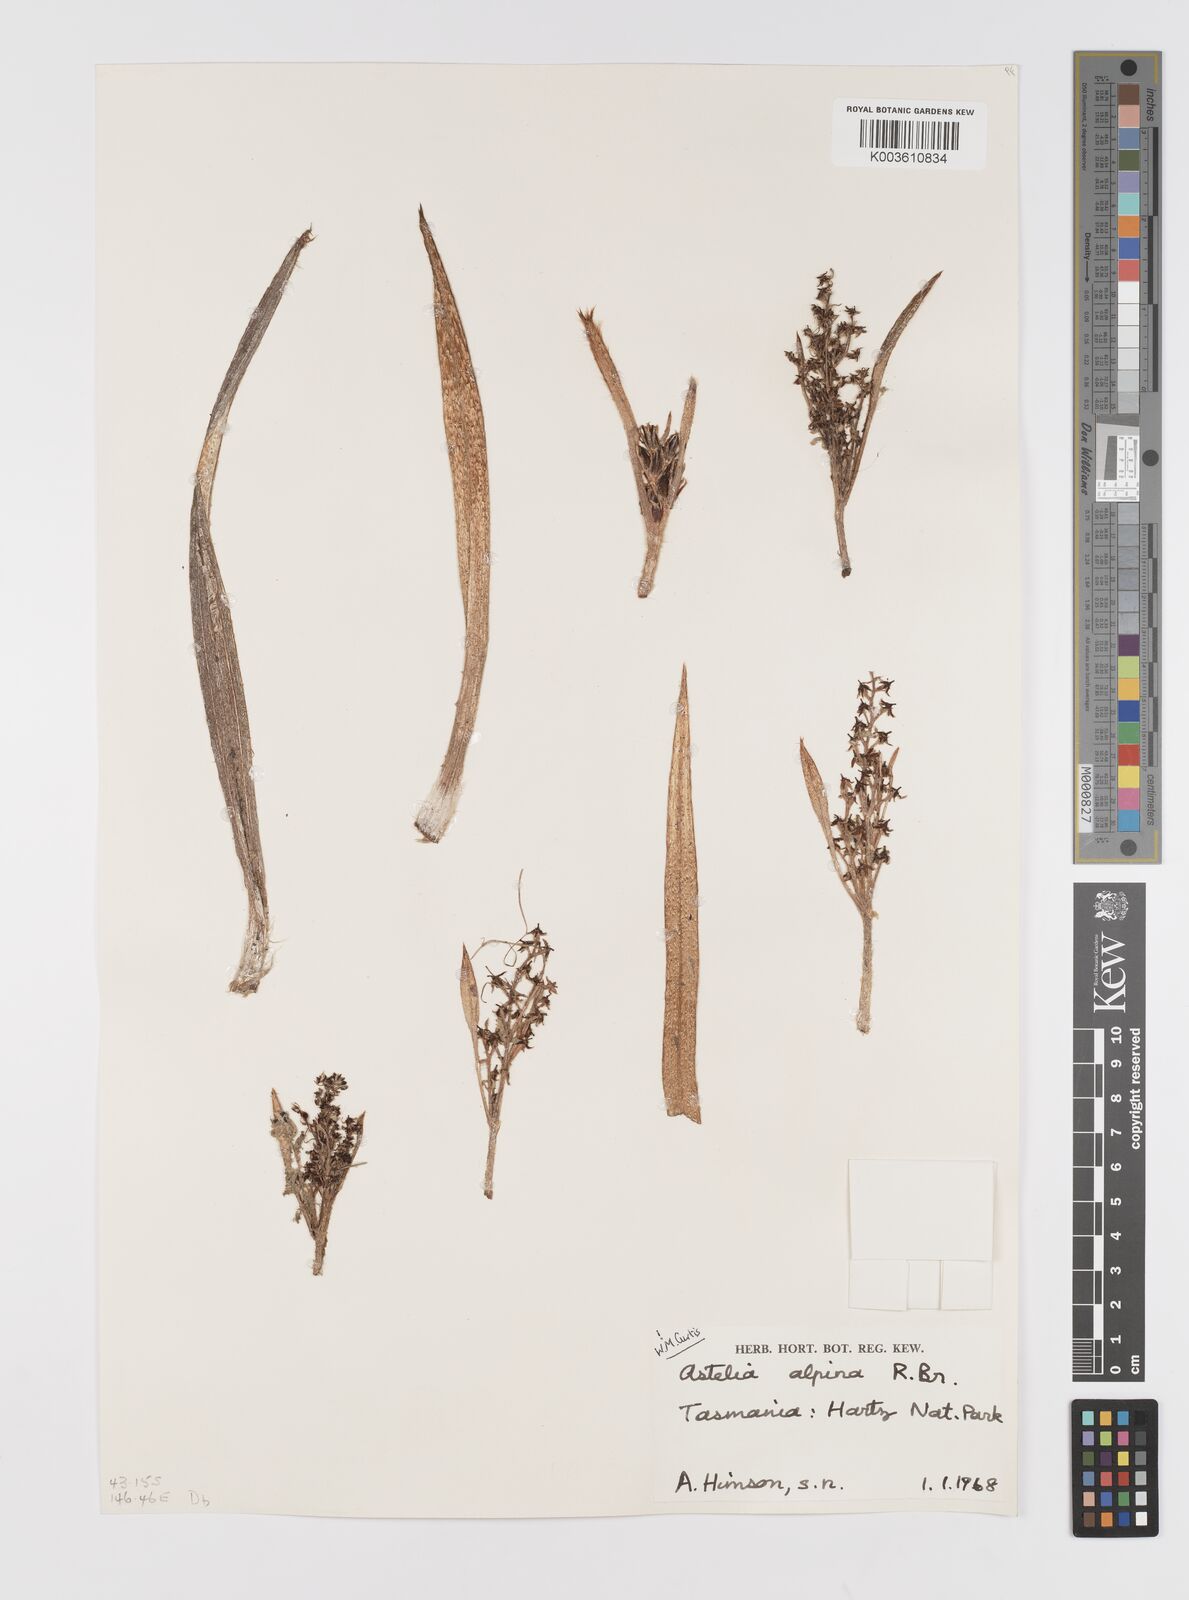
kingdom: Plantae
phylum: Tracheophyta
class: Liliopsida
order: Asparagales
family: Asteliaceae
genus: Astelia
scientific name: Astelia alpina
